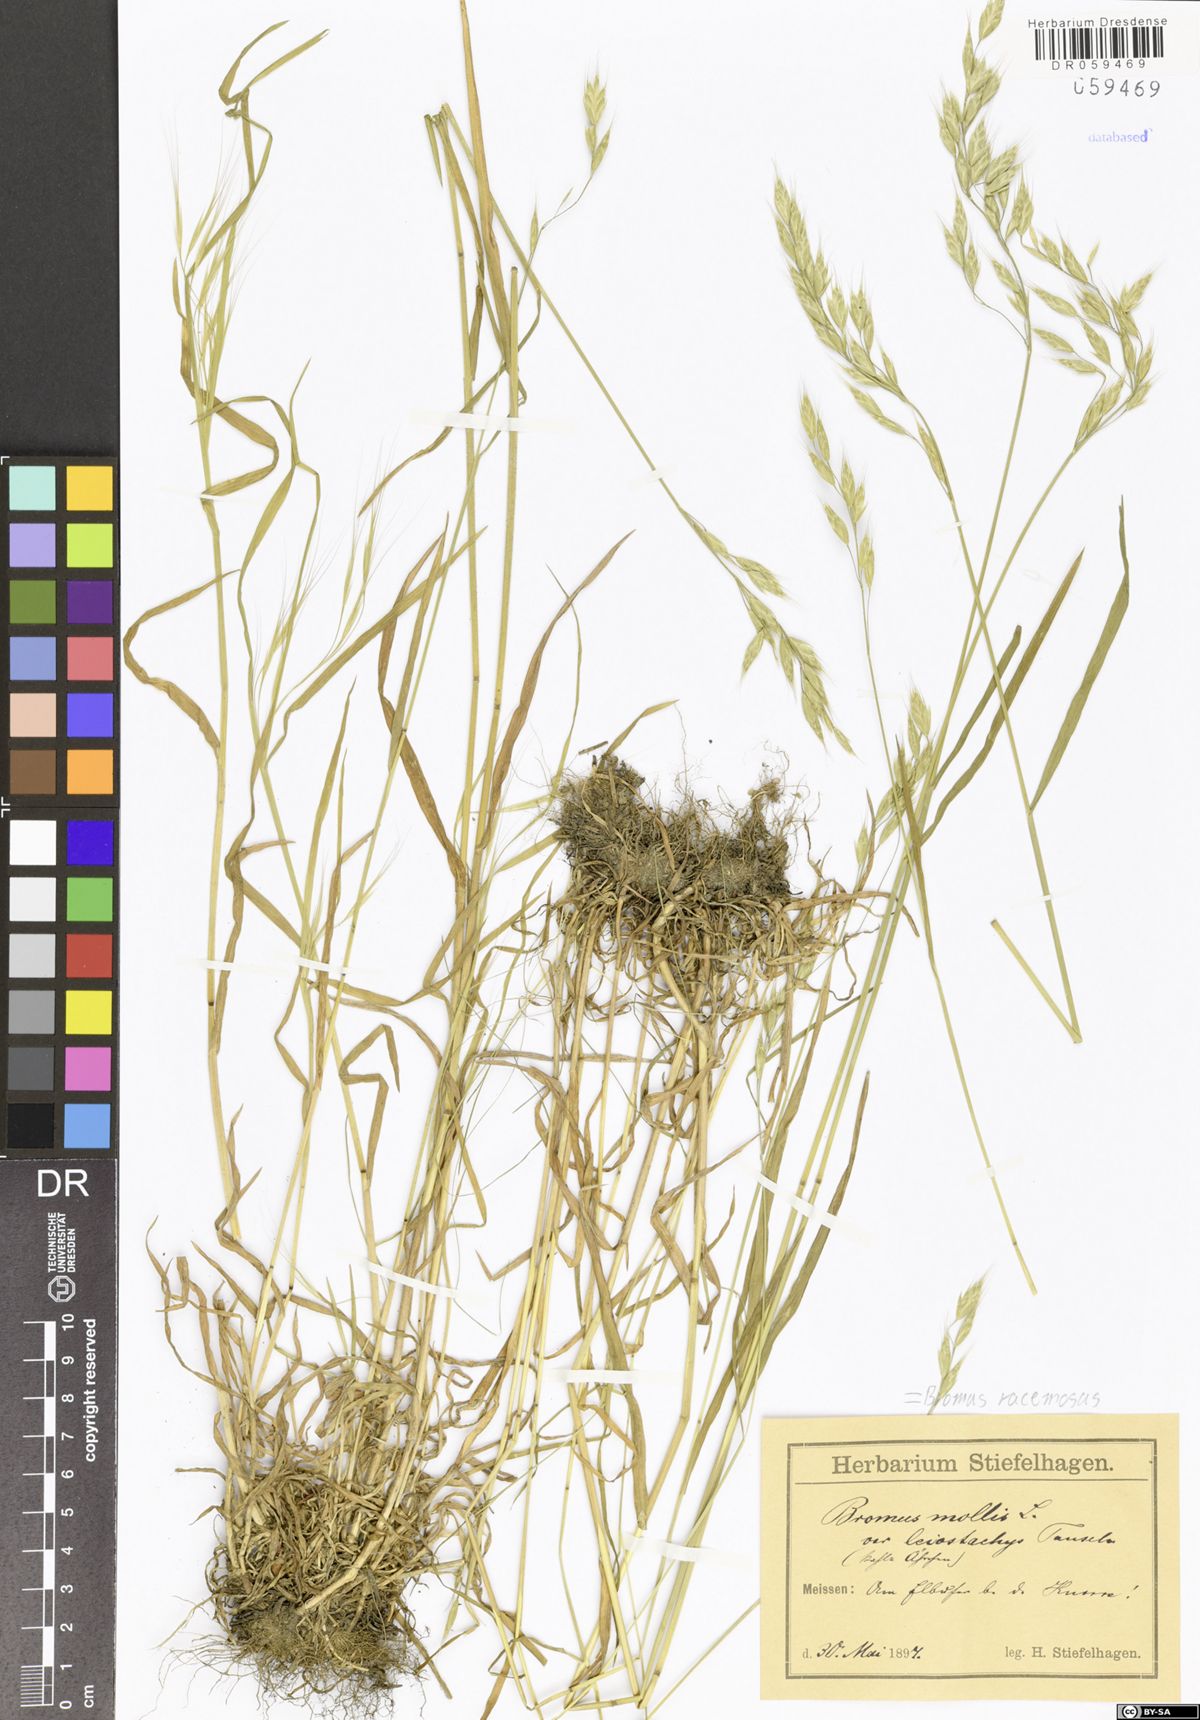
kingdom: Plantae
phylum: Tracheophyta
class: Liliopsida
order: Poales
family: Poaceae
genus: Bromus
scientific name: Bromus racemosus
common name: Bald brome
